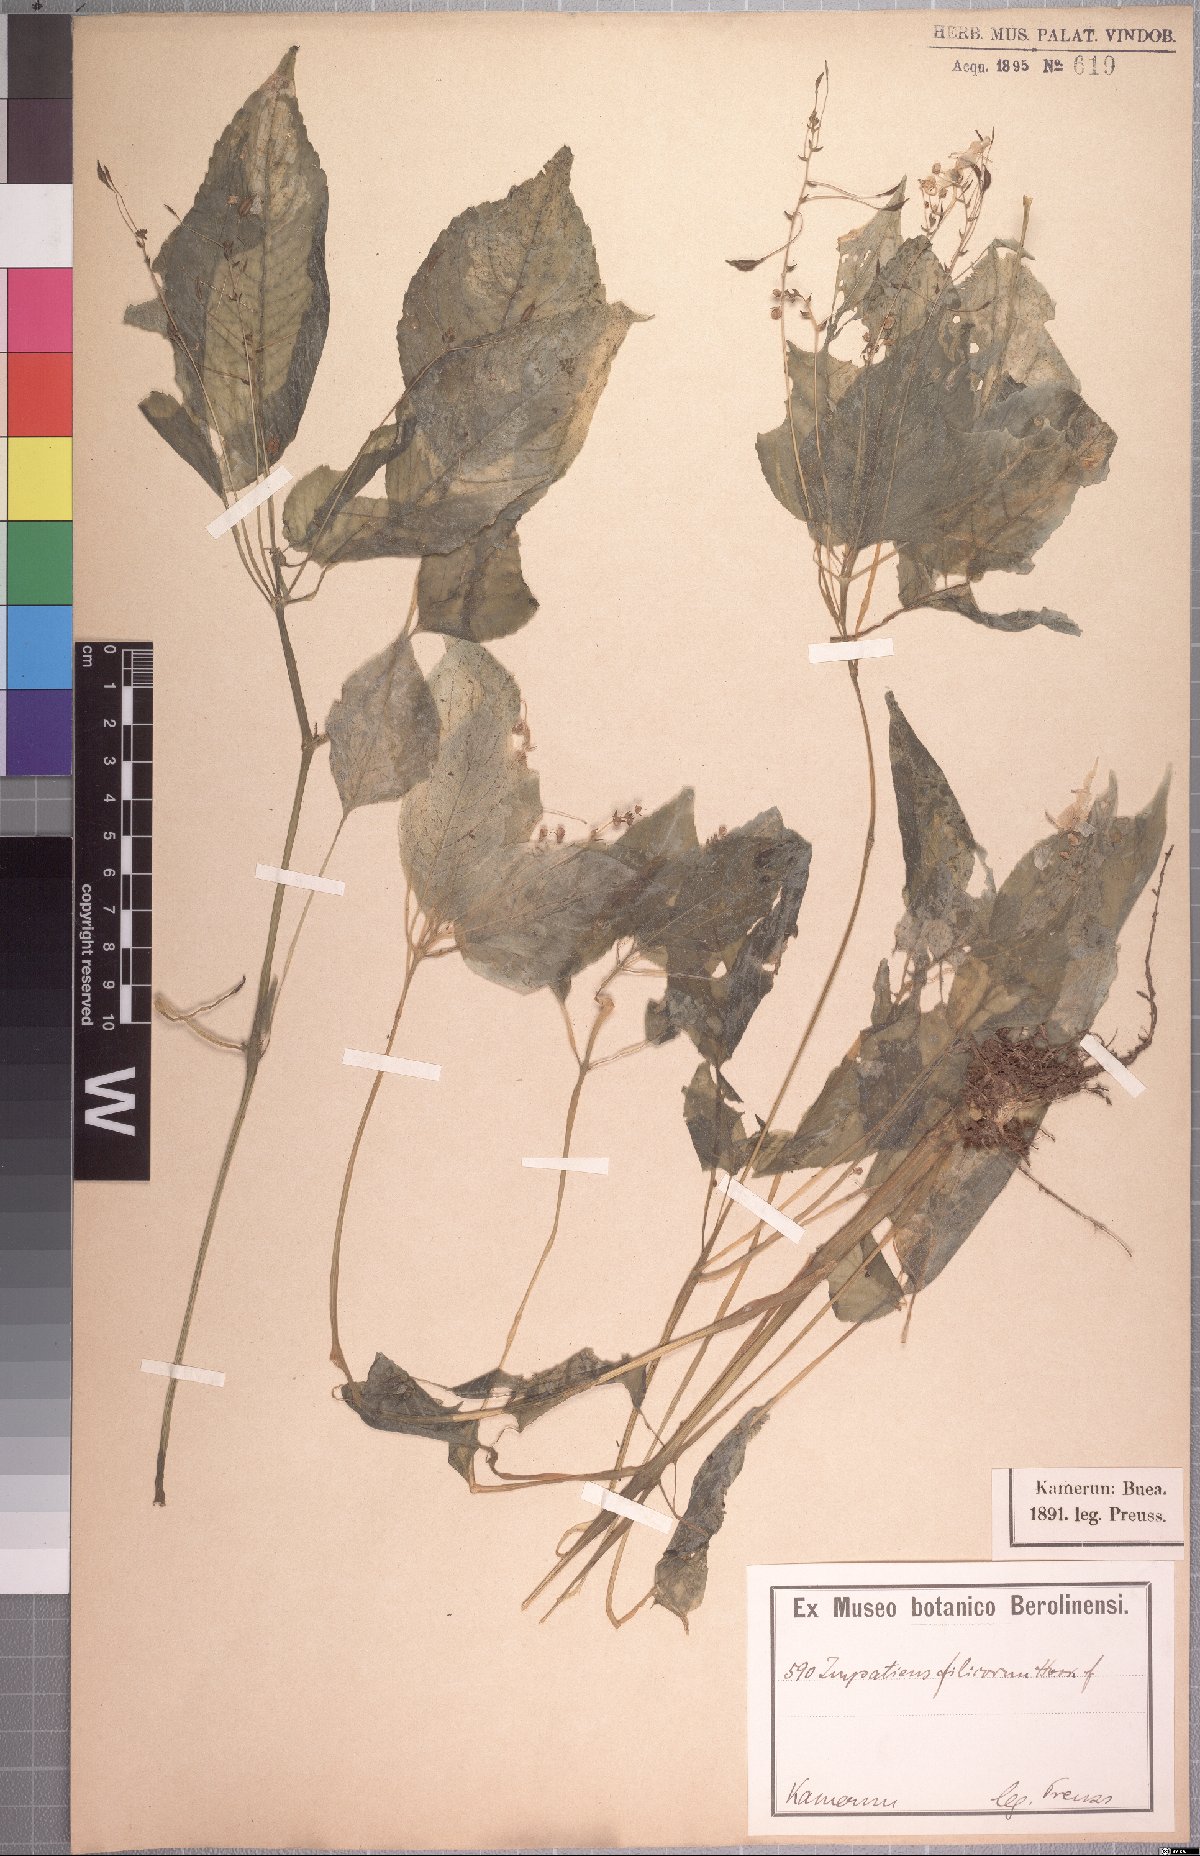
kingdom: Plantae
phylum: Tracheophyta
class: Magnoliopsida
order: Ericales
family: Balsaminaceae
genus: Impatiens
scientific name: Impatiens kamerunensis
